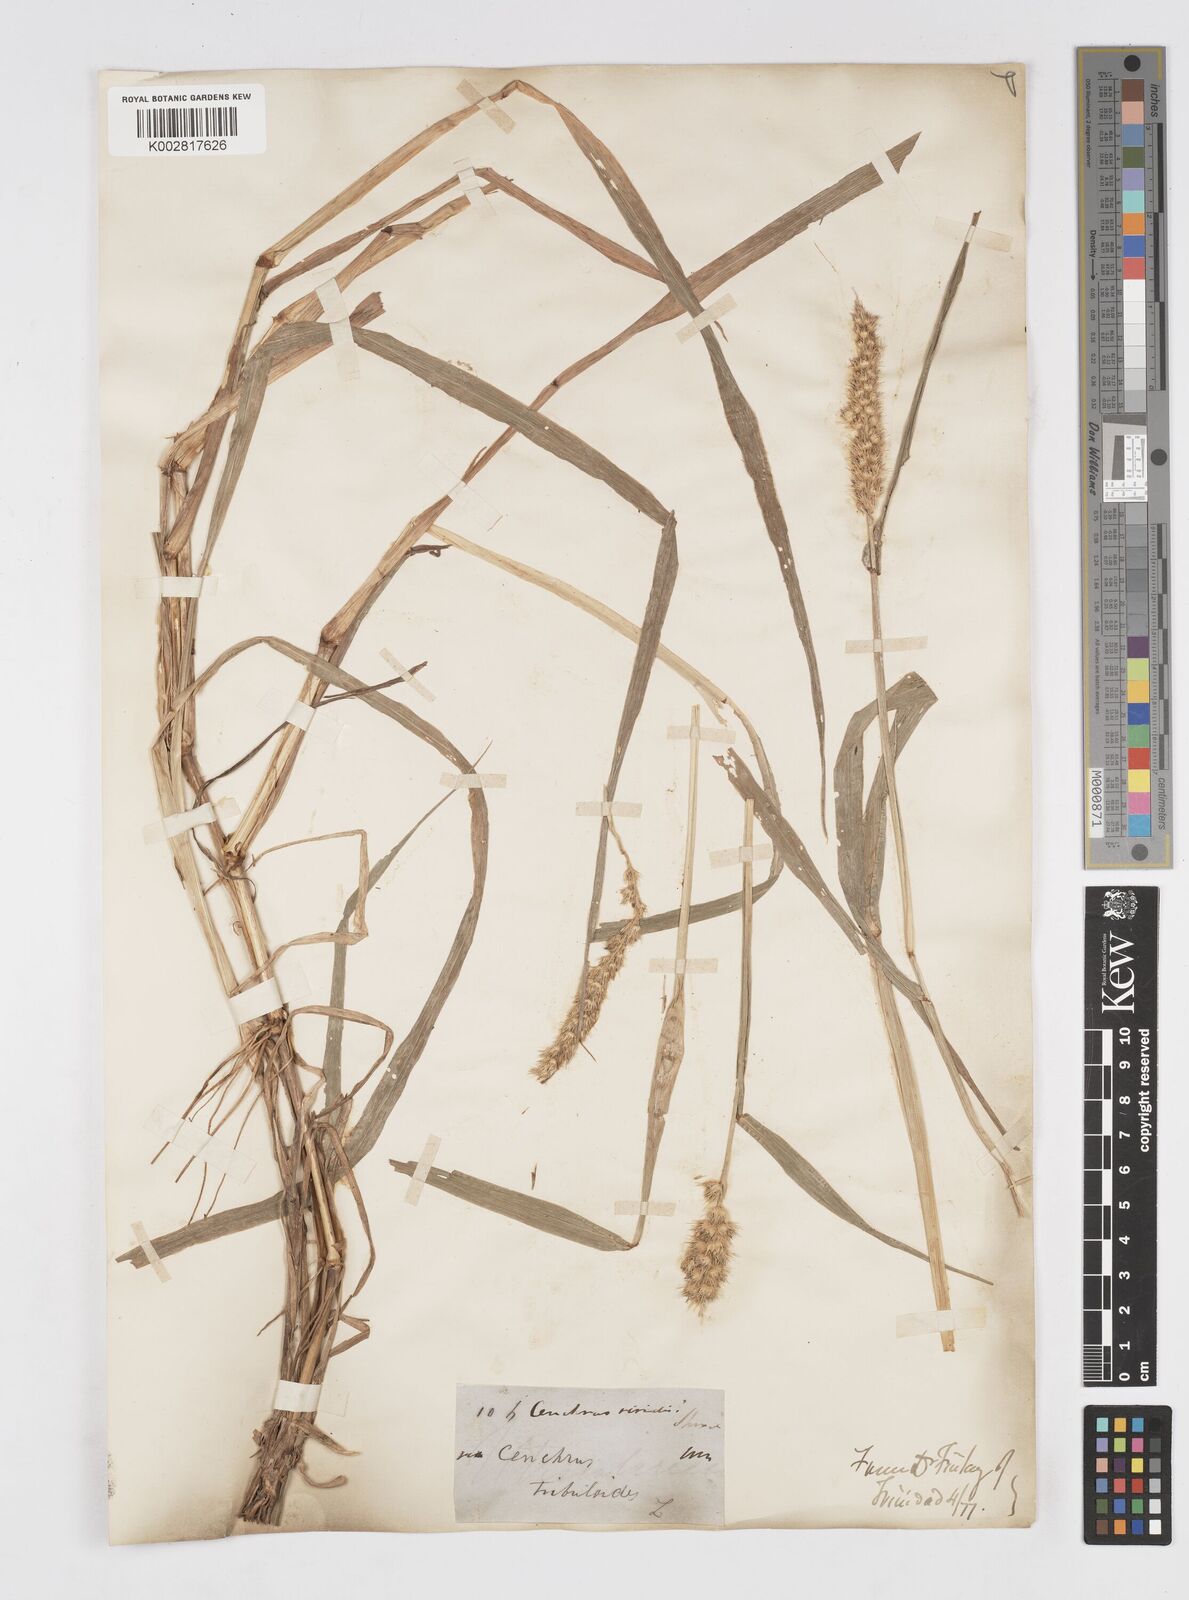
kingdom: Plantae
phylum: Tracheophyta
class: Liliopsida
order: Poales
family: Poaceae
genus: Cenchrus
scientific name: Cenchrus brownii
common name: Slim-bristle sandbur
